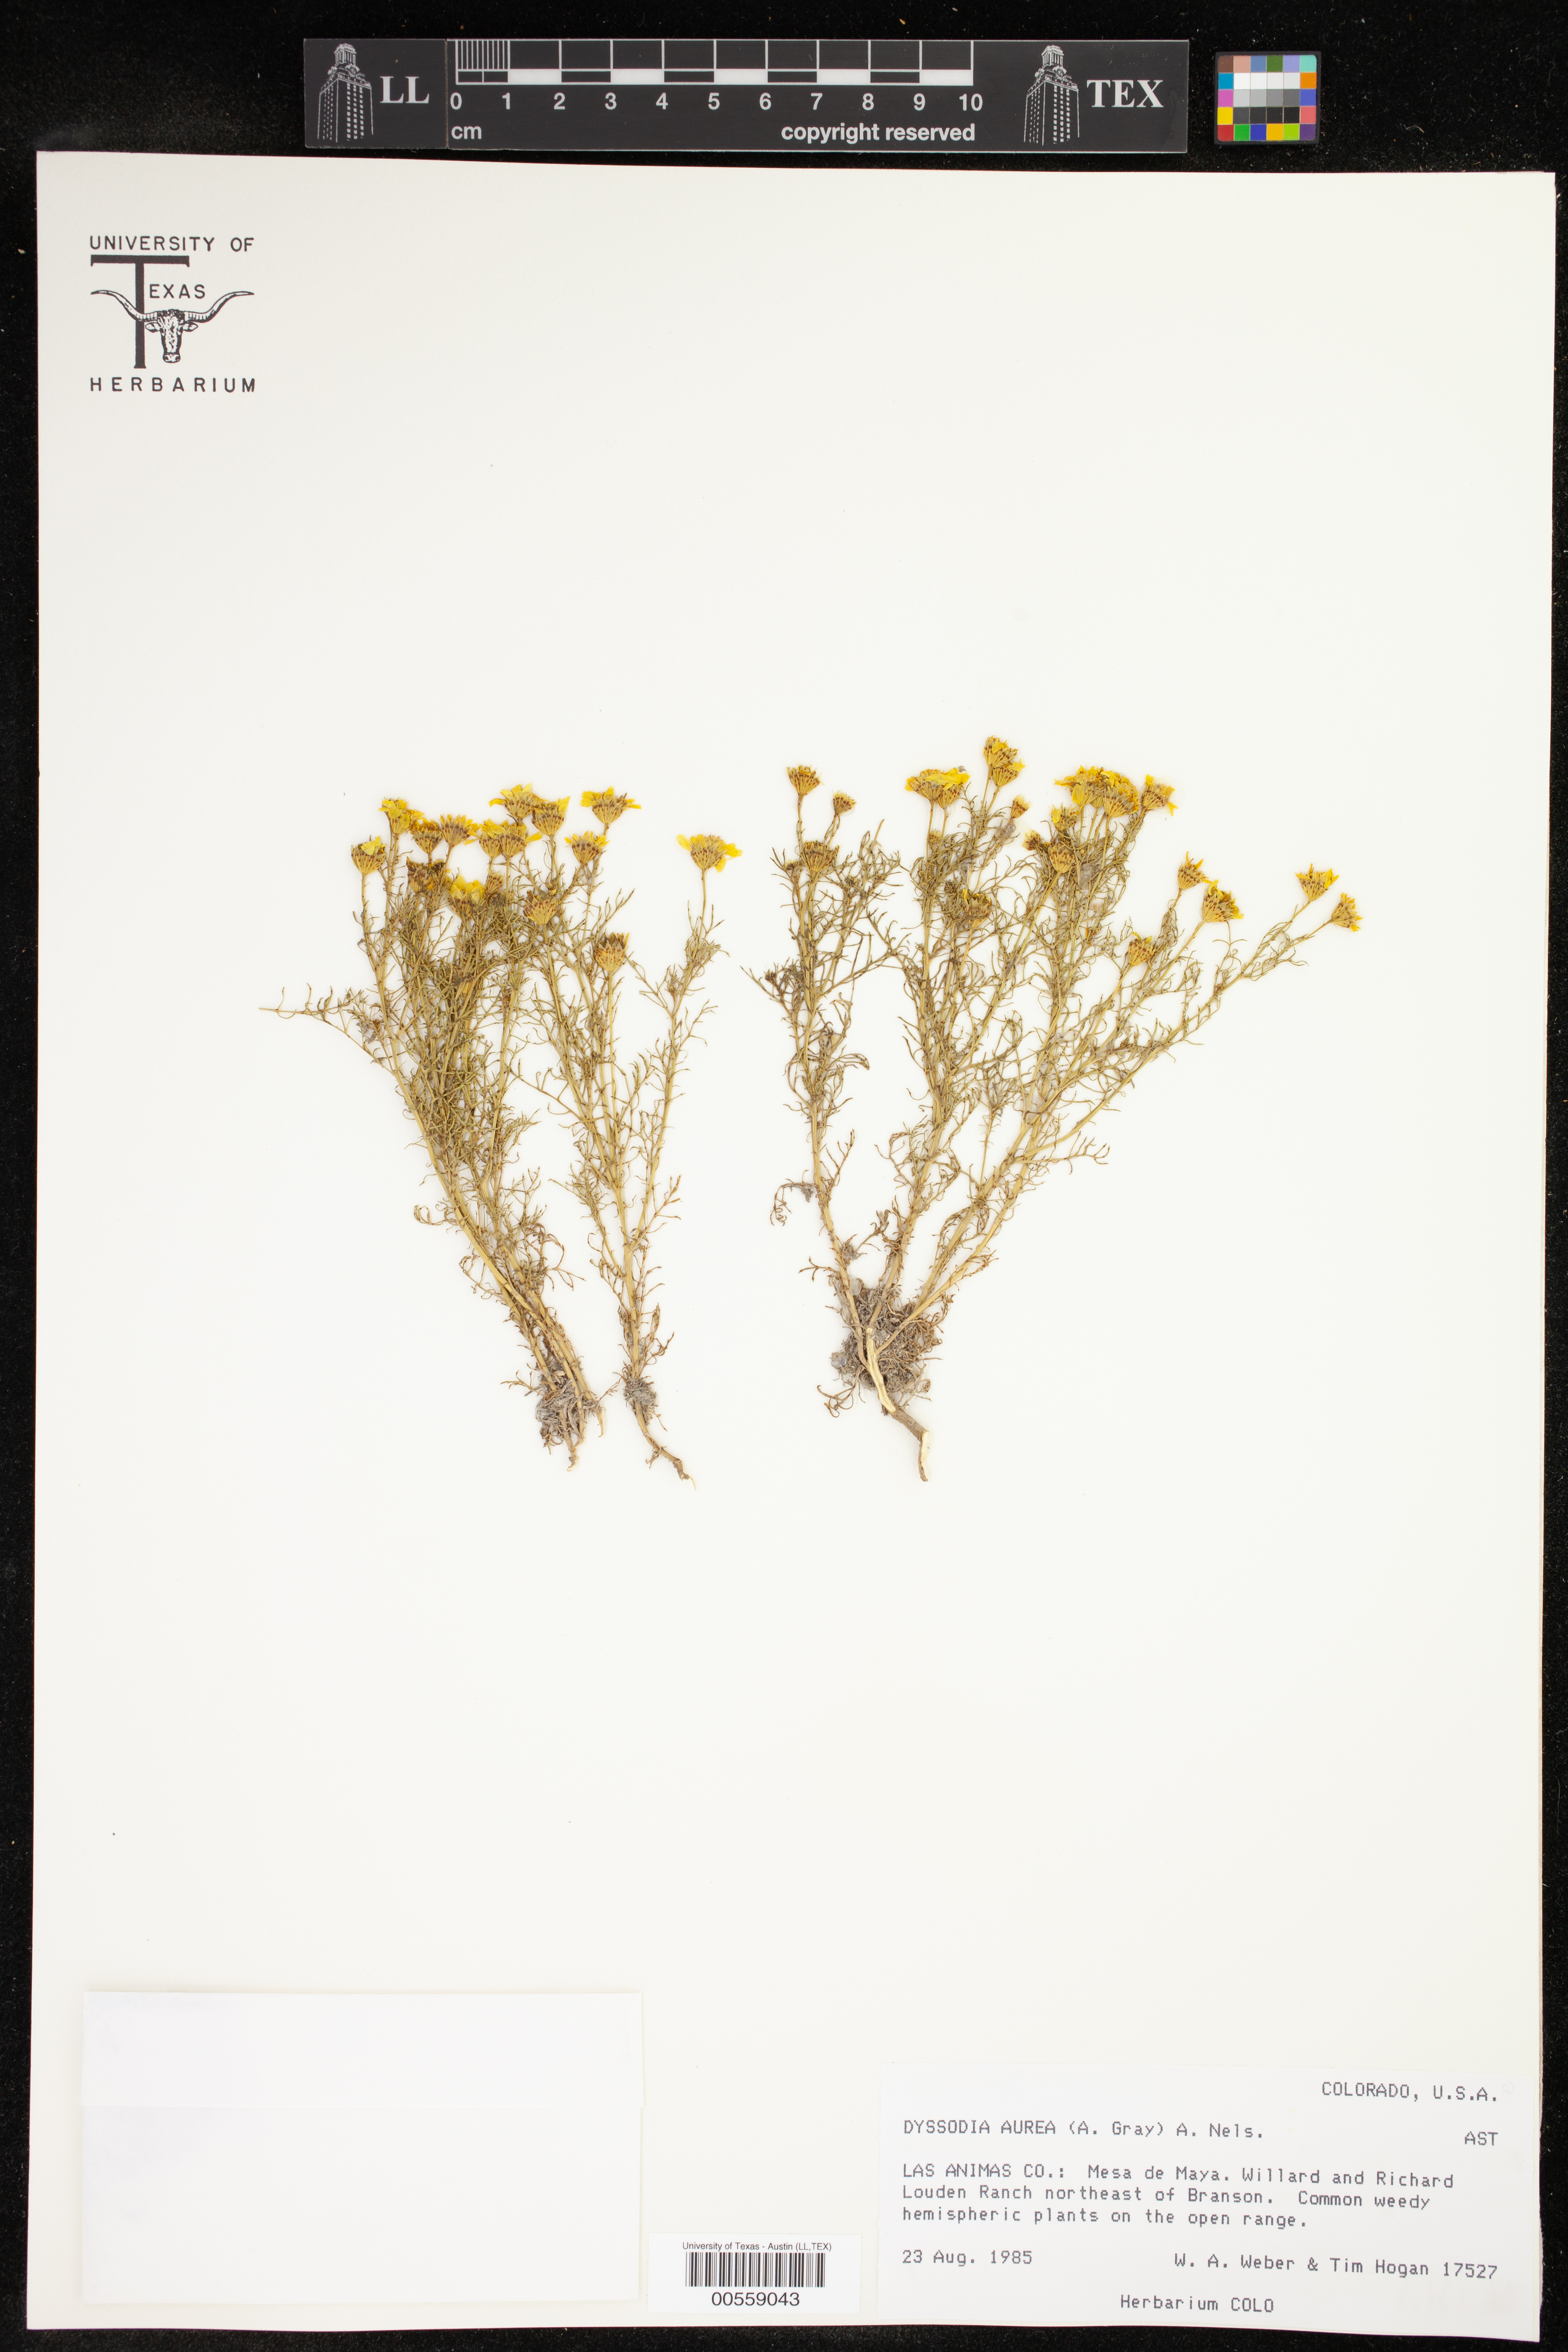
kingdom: Plantae
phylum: Tracheophyta
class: Magnoliopsida
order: Asterales
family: Asteraceae
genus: Thymophylla
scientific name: Thymophylla aurea
